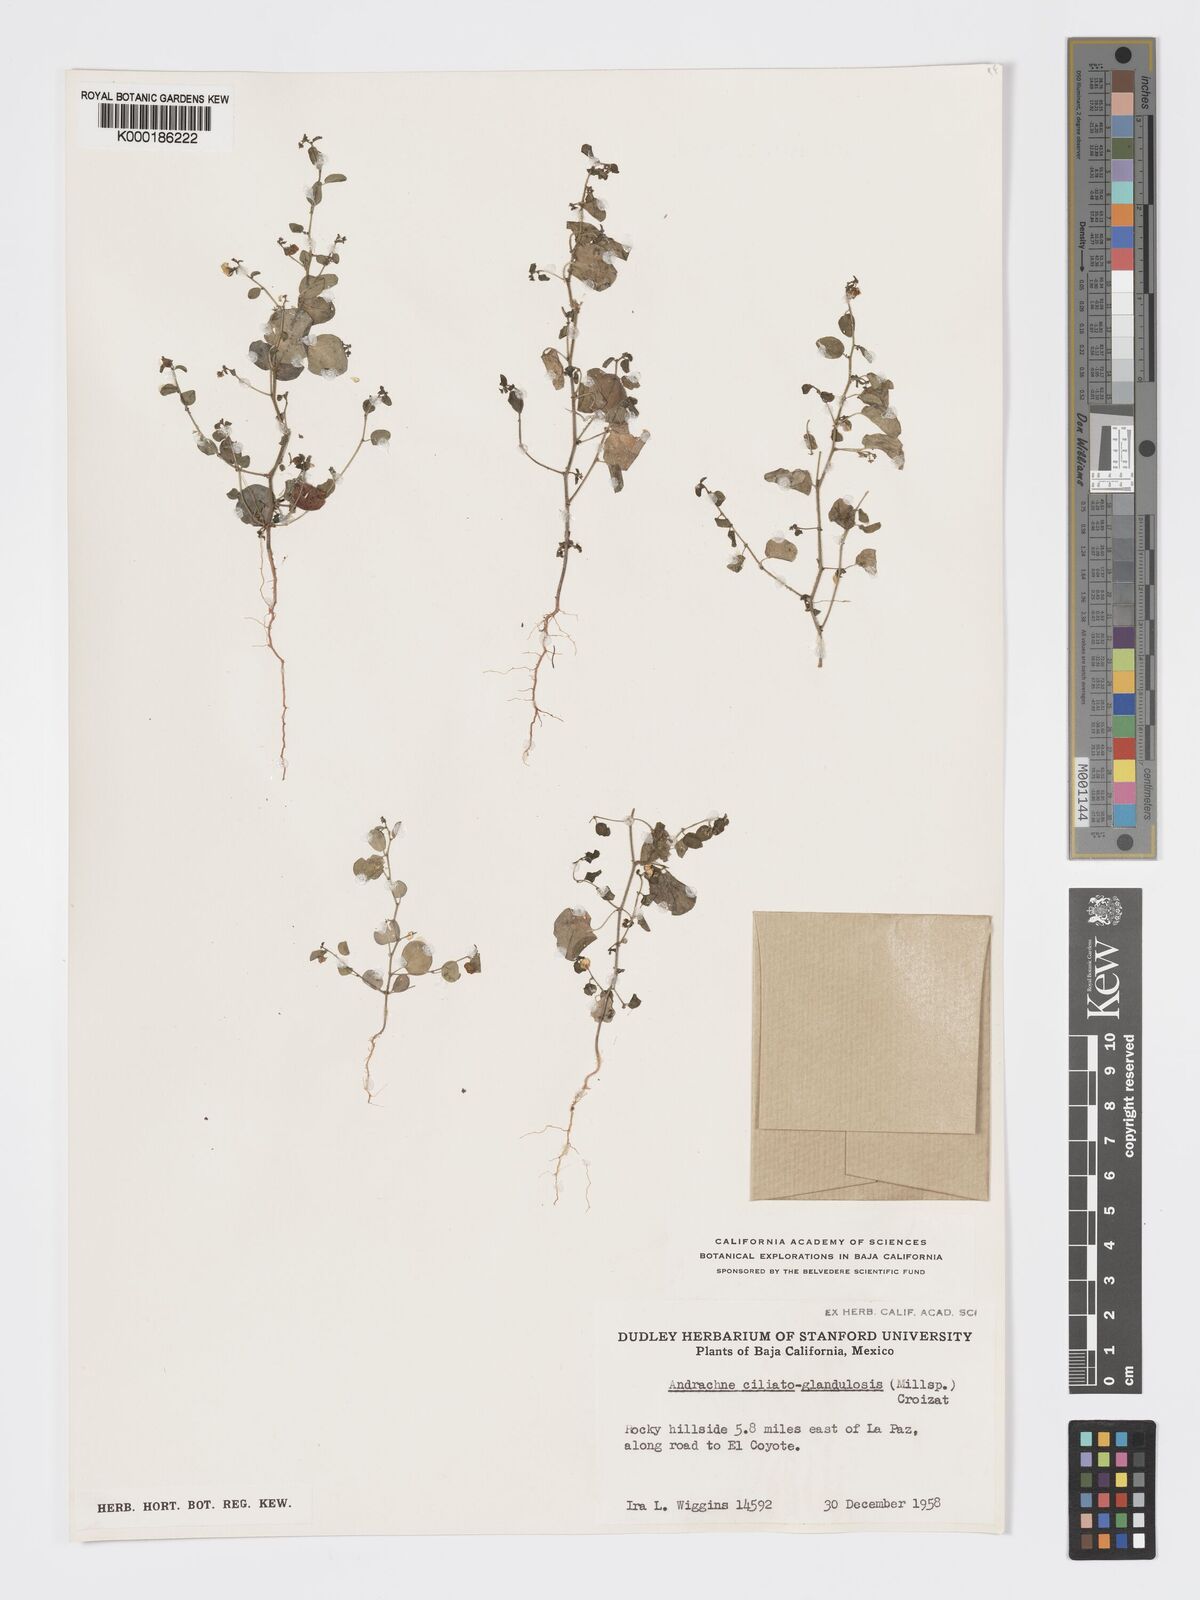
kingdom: Plantae
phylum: Tracheophyta
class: Magnoliopsida
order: Malpighiales
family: Phyllanthaceae
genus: Andrachne
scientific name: Andrachne microphylla
